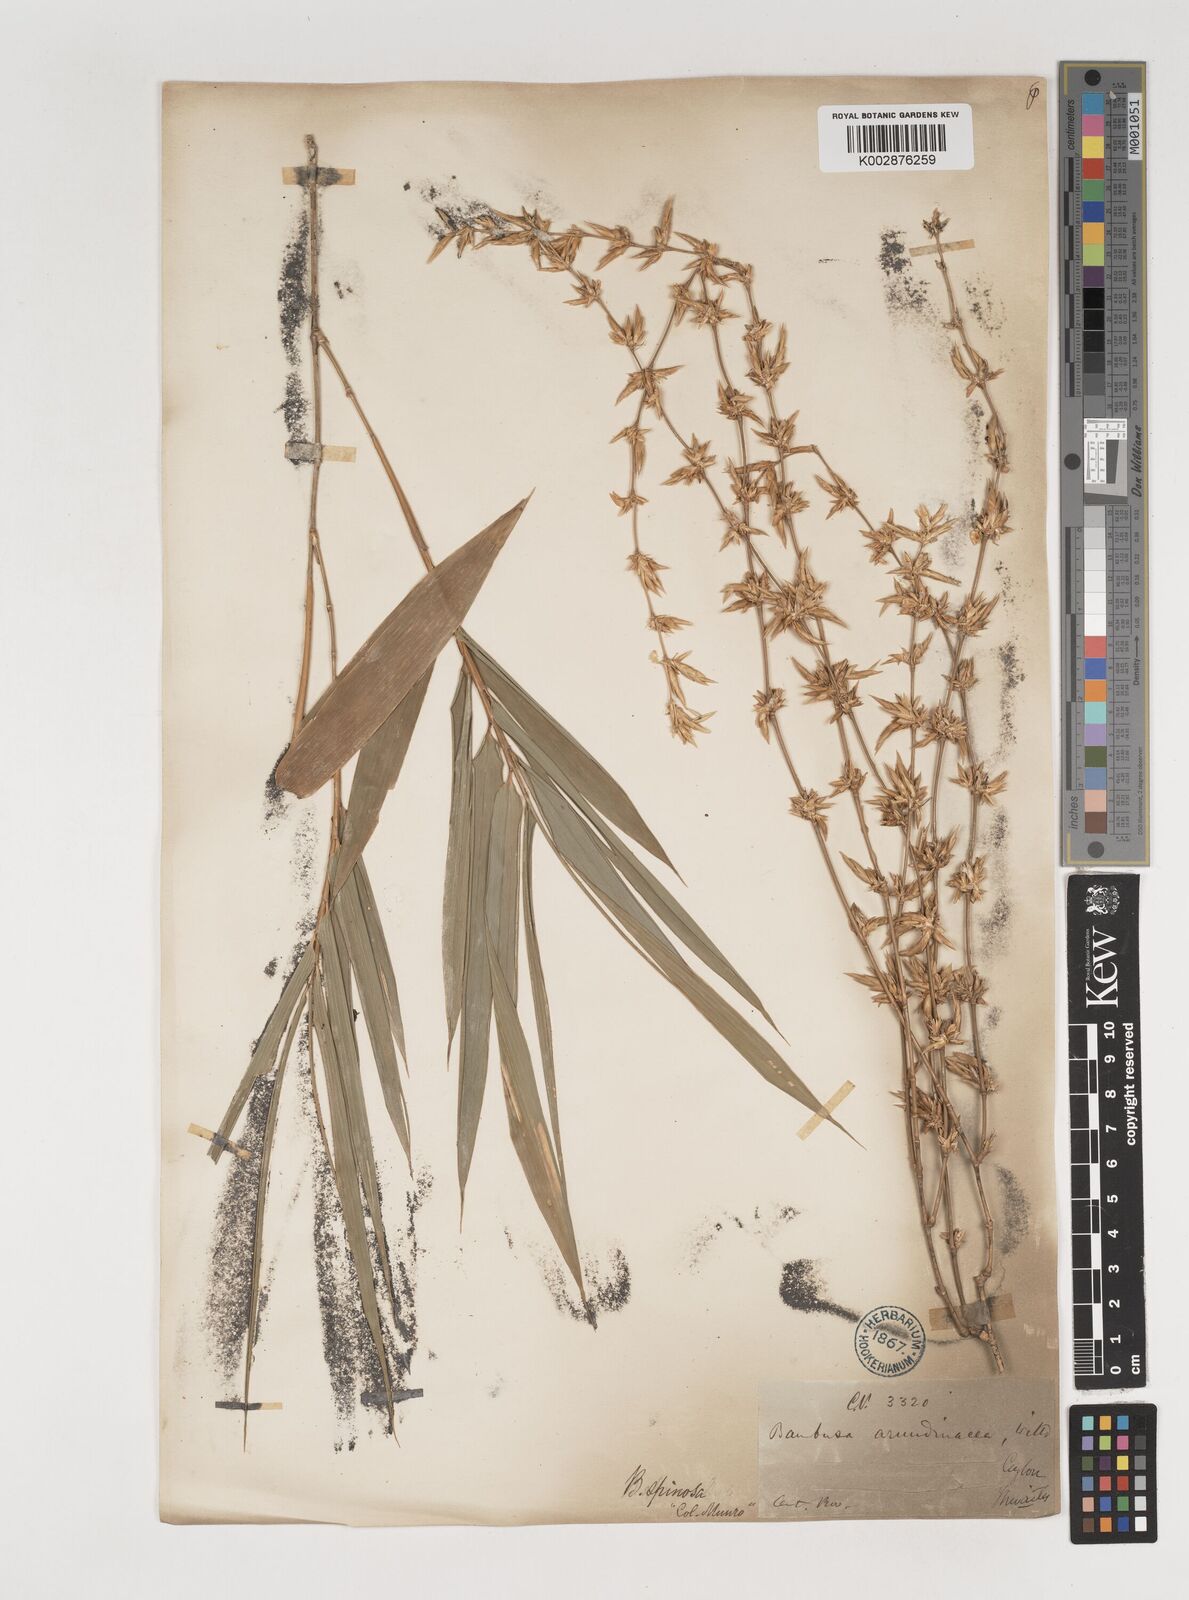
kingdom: Plantae
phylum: Tracheophyta
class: Liliopsida
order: Poales
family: Poaceae
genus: Bambusa
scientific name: Bambusa bambos
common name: Indian thorny bamboo
